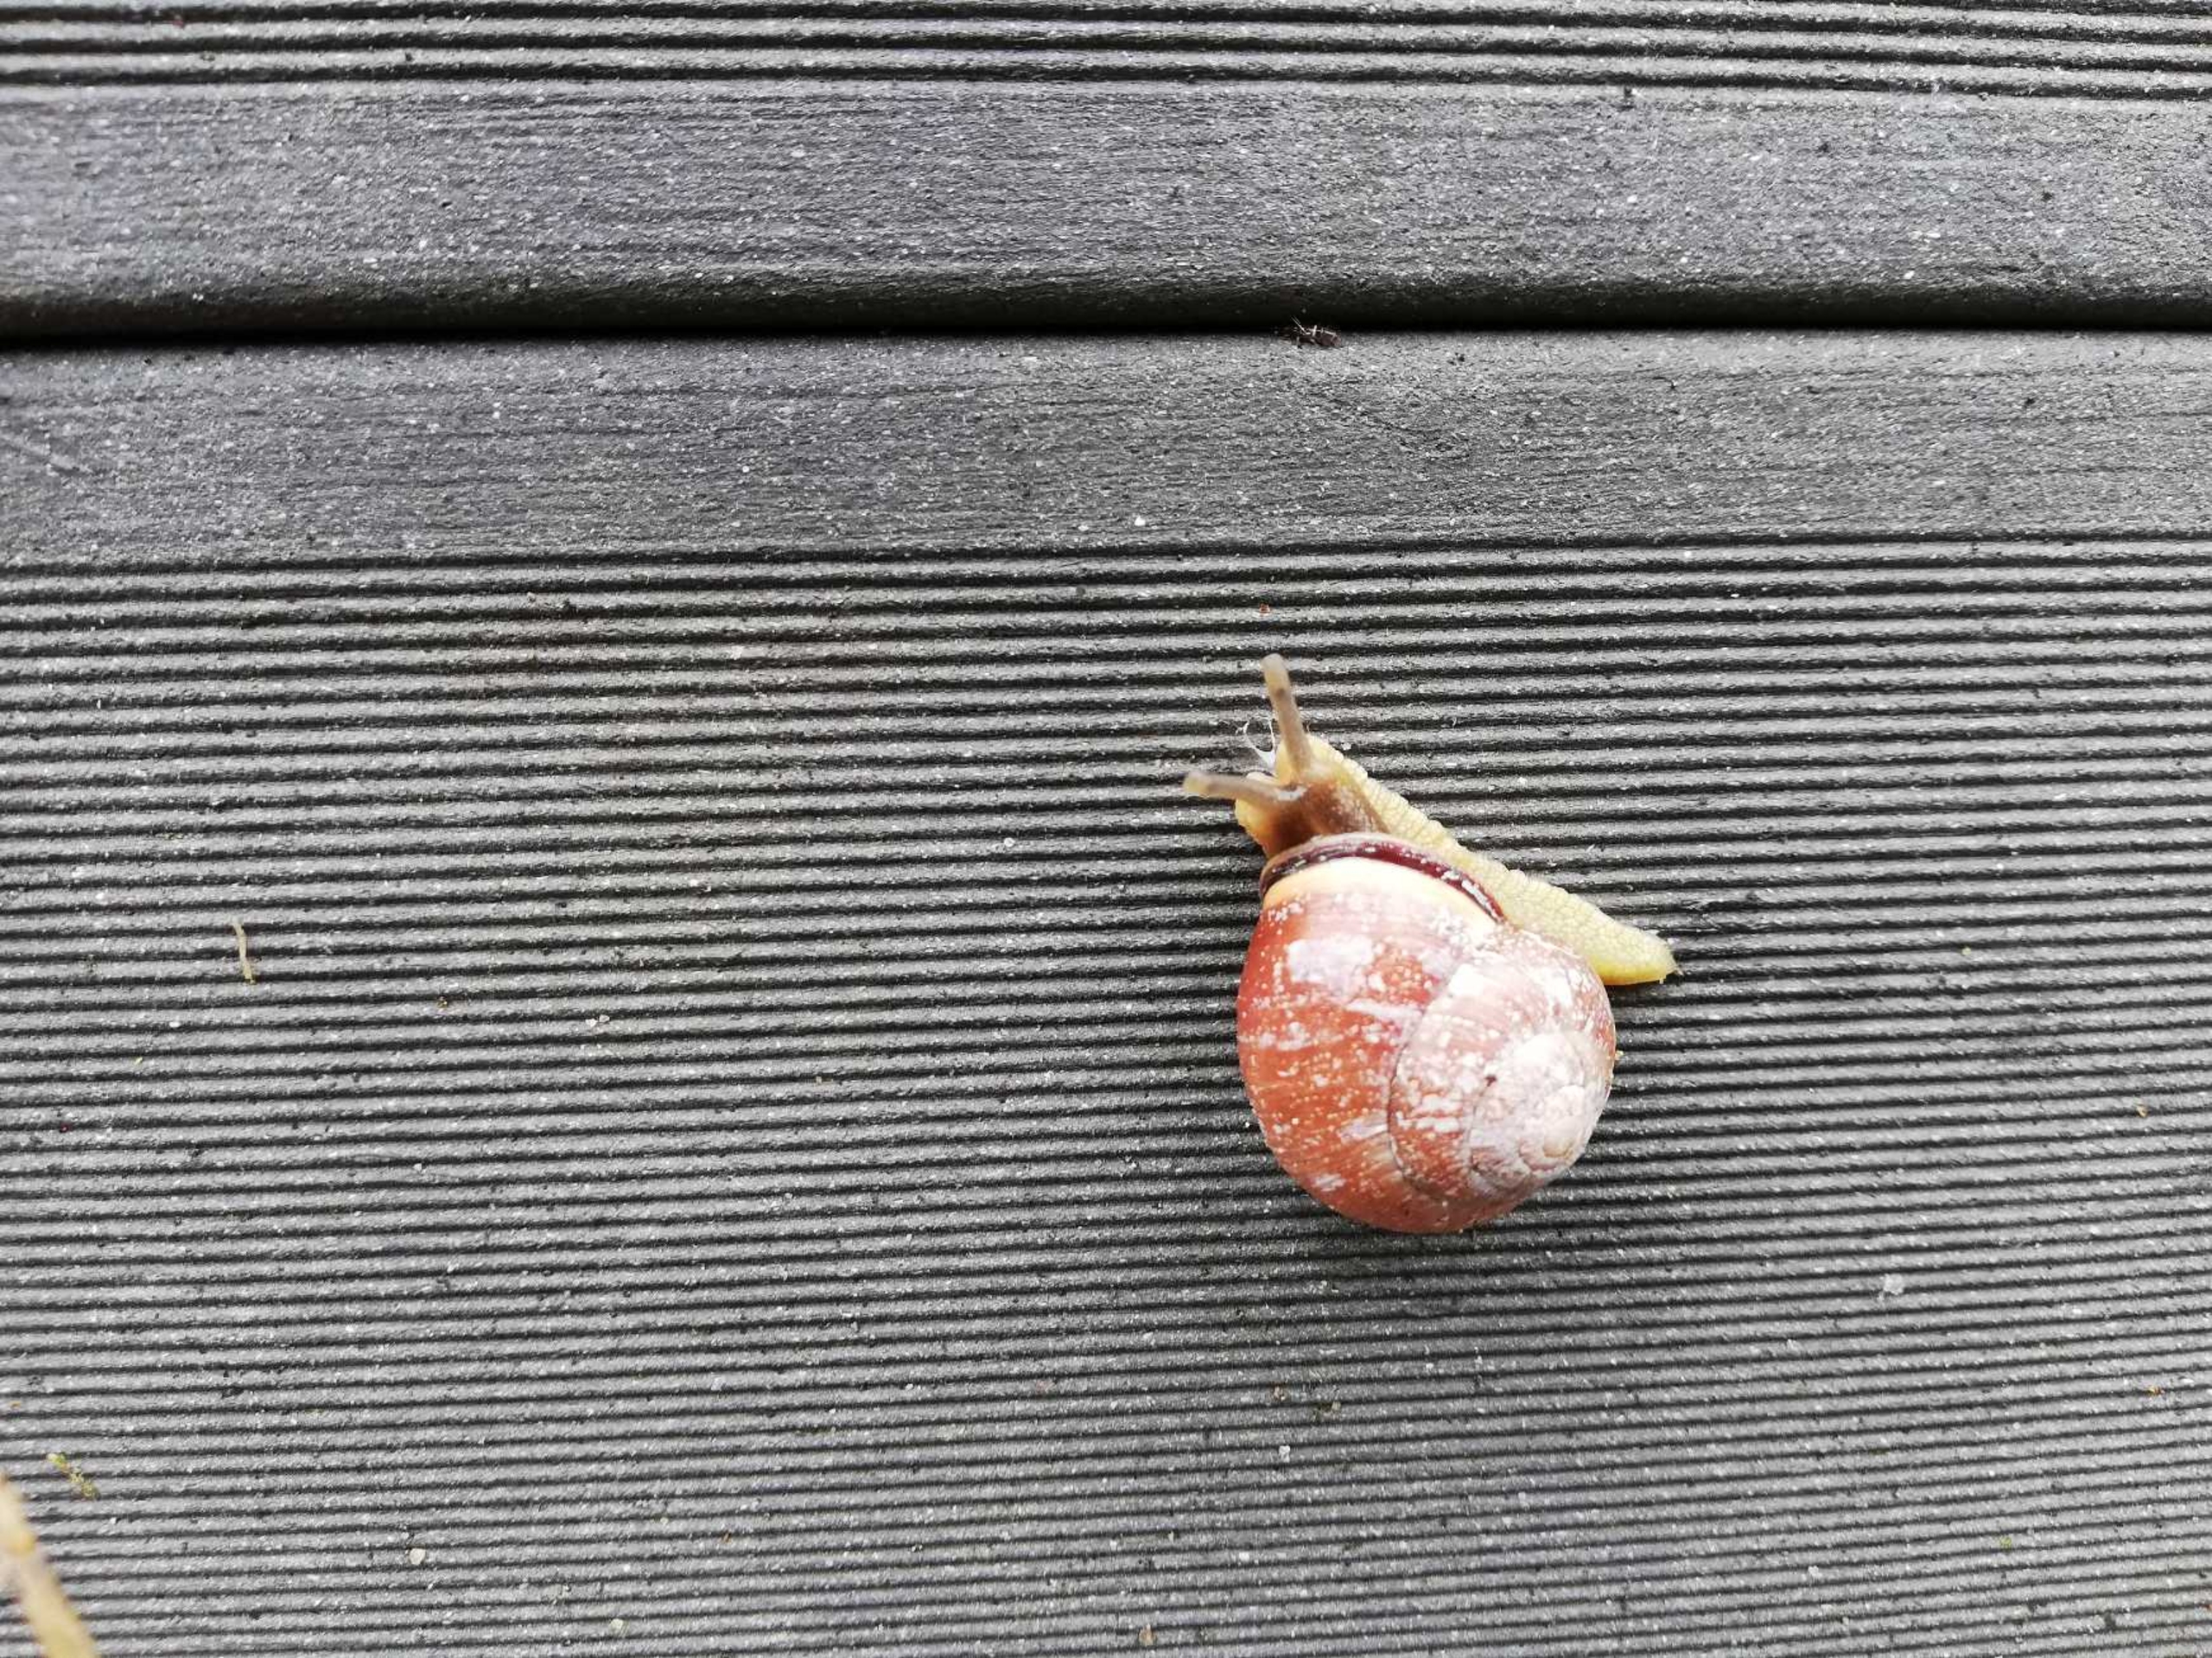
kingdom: Animalia
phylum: Mollusca
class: Gastropoda
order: Stylommatophora
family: Helicidae
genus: Cepaea
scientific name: Cepaea nemoralis
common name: Lundsnegl
